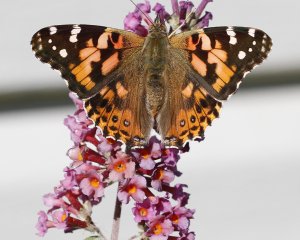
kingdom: Animalia
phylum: Arthropoda
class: Insecta
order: Lepidoptera
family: Nymphalidae
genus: Vanessa
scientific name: Vanessa cardui
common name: Painted Lady
